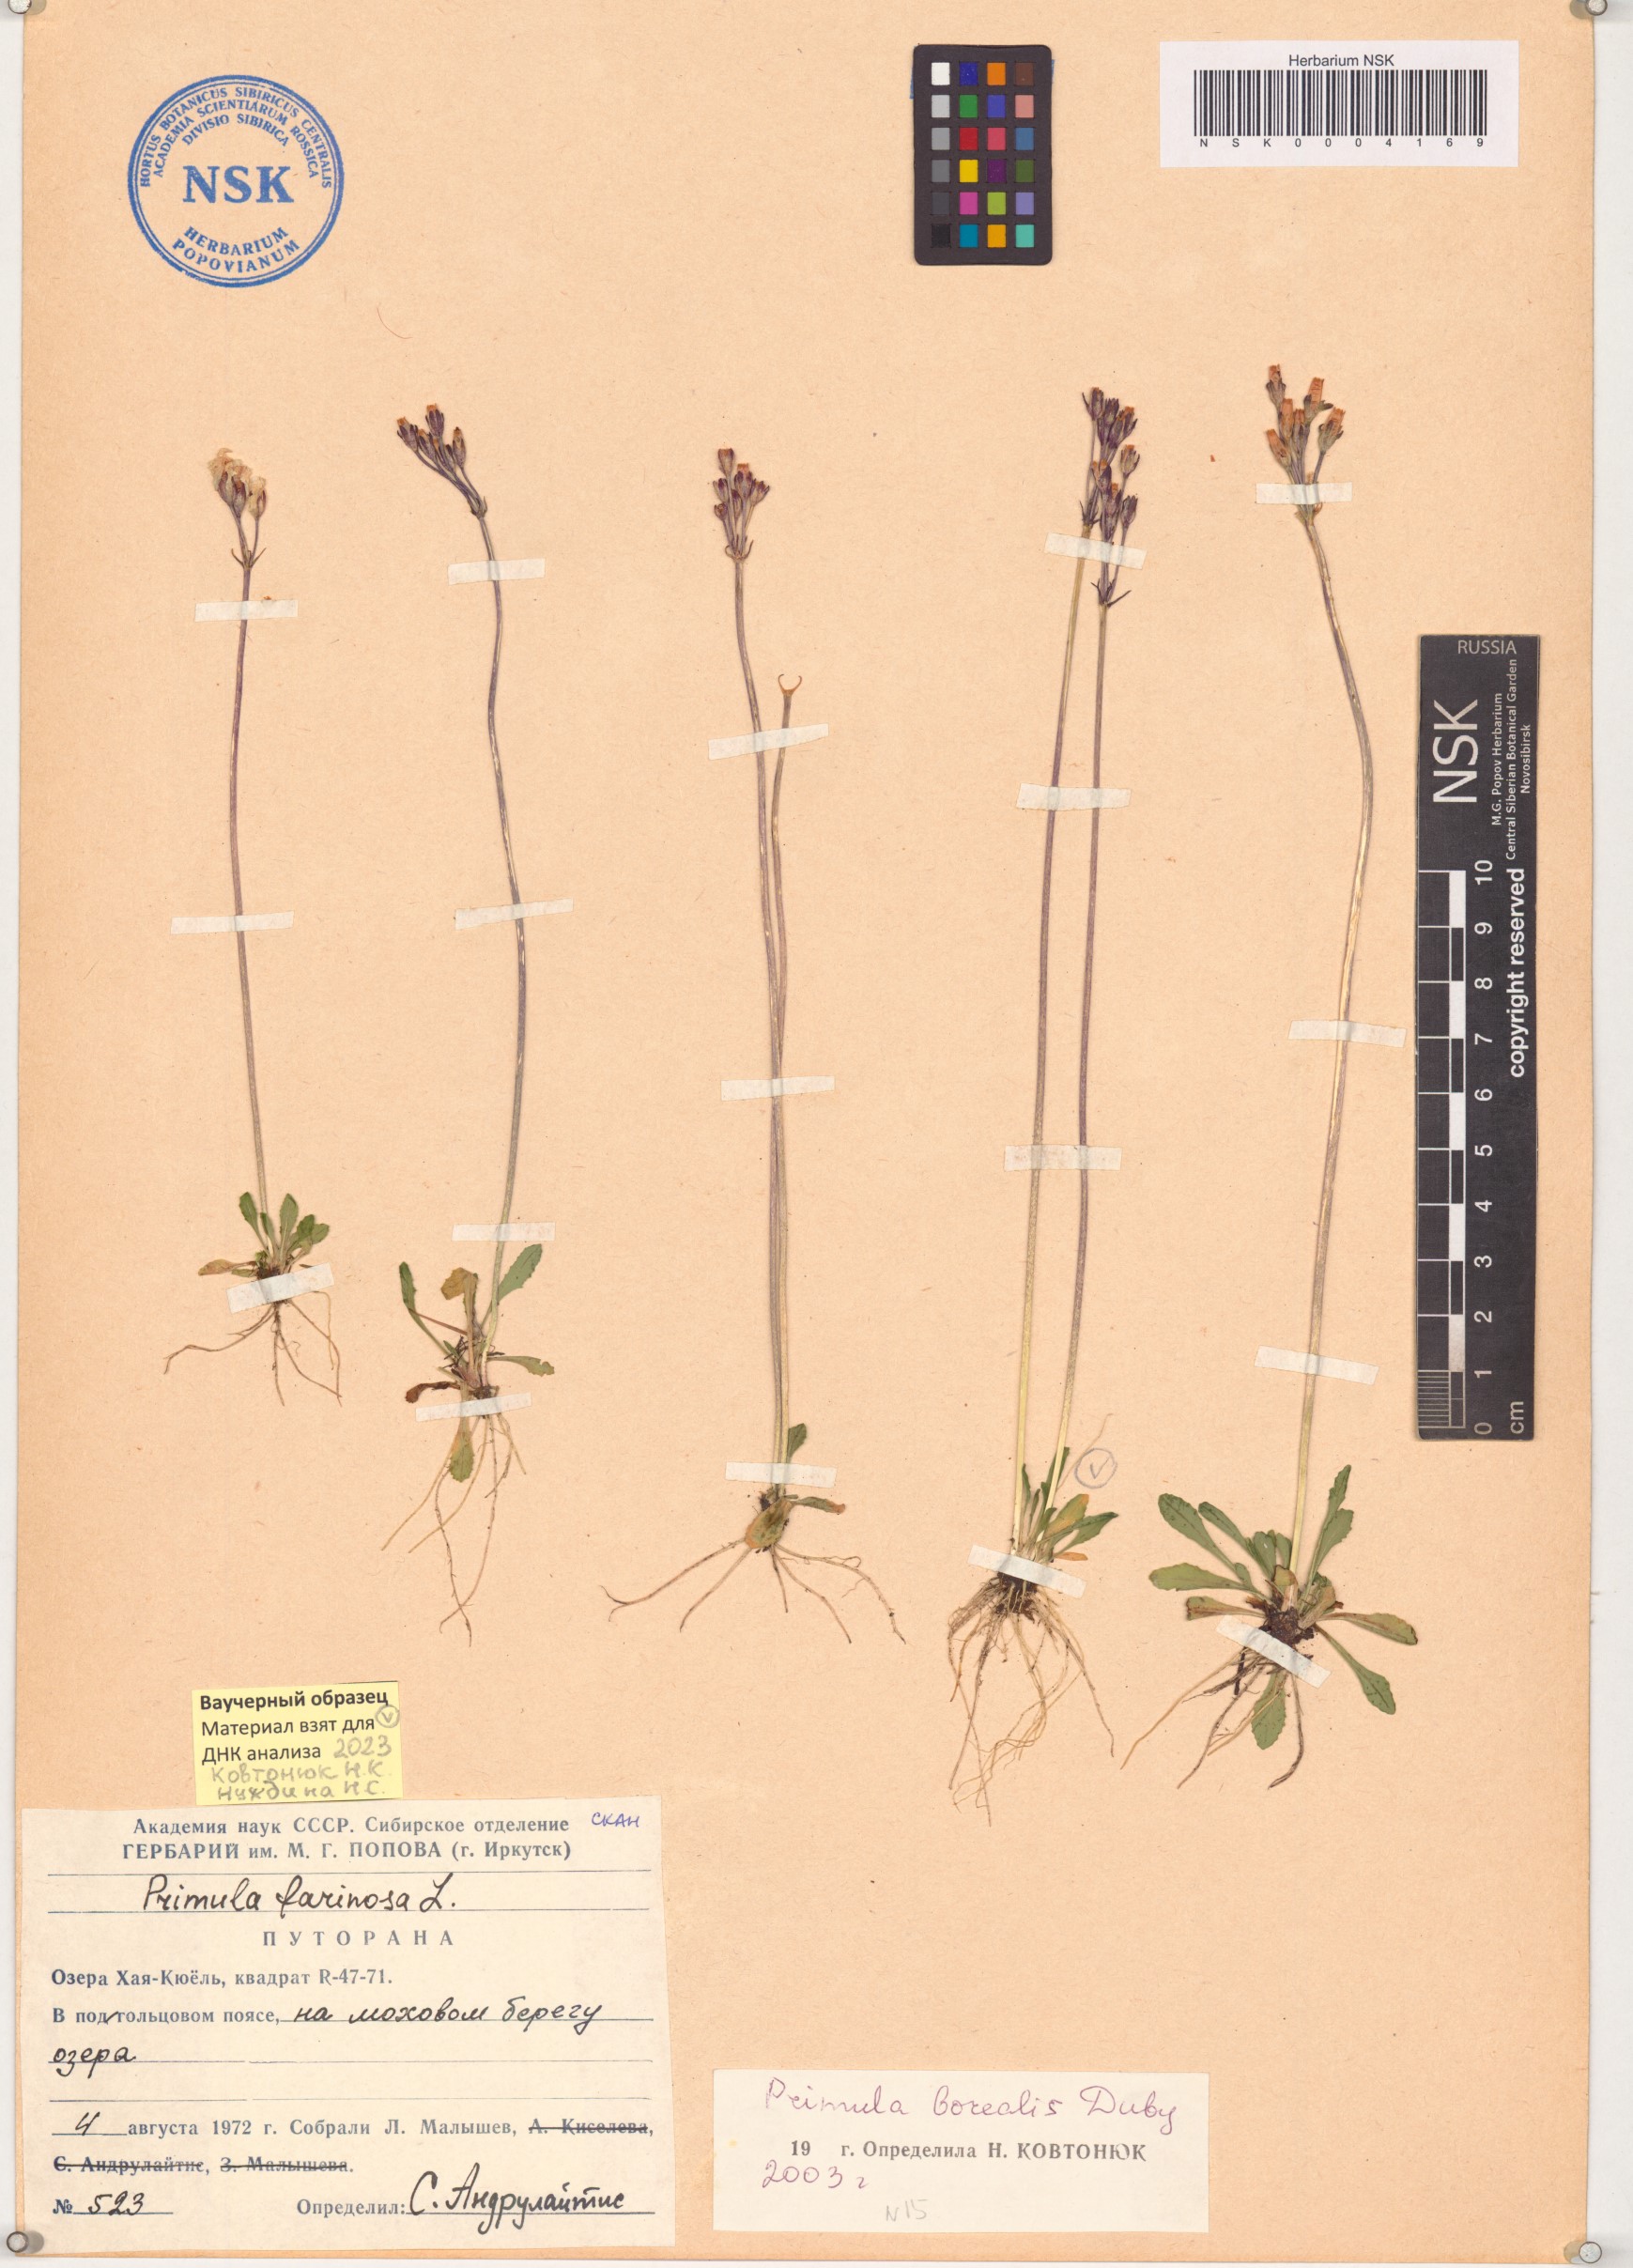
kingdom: Plantae
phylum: Tracheophyta
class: Magnoliopsida
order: Ericales
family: Primulaceae
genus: Primula
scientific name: Primula borealis
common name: Northern primrose
